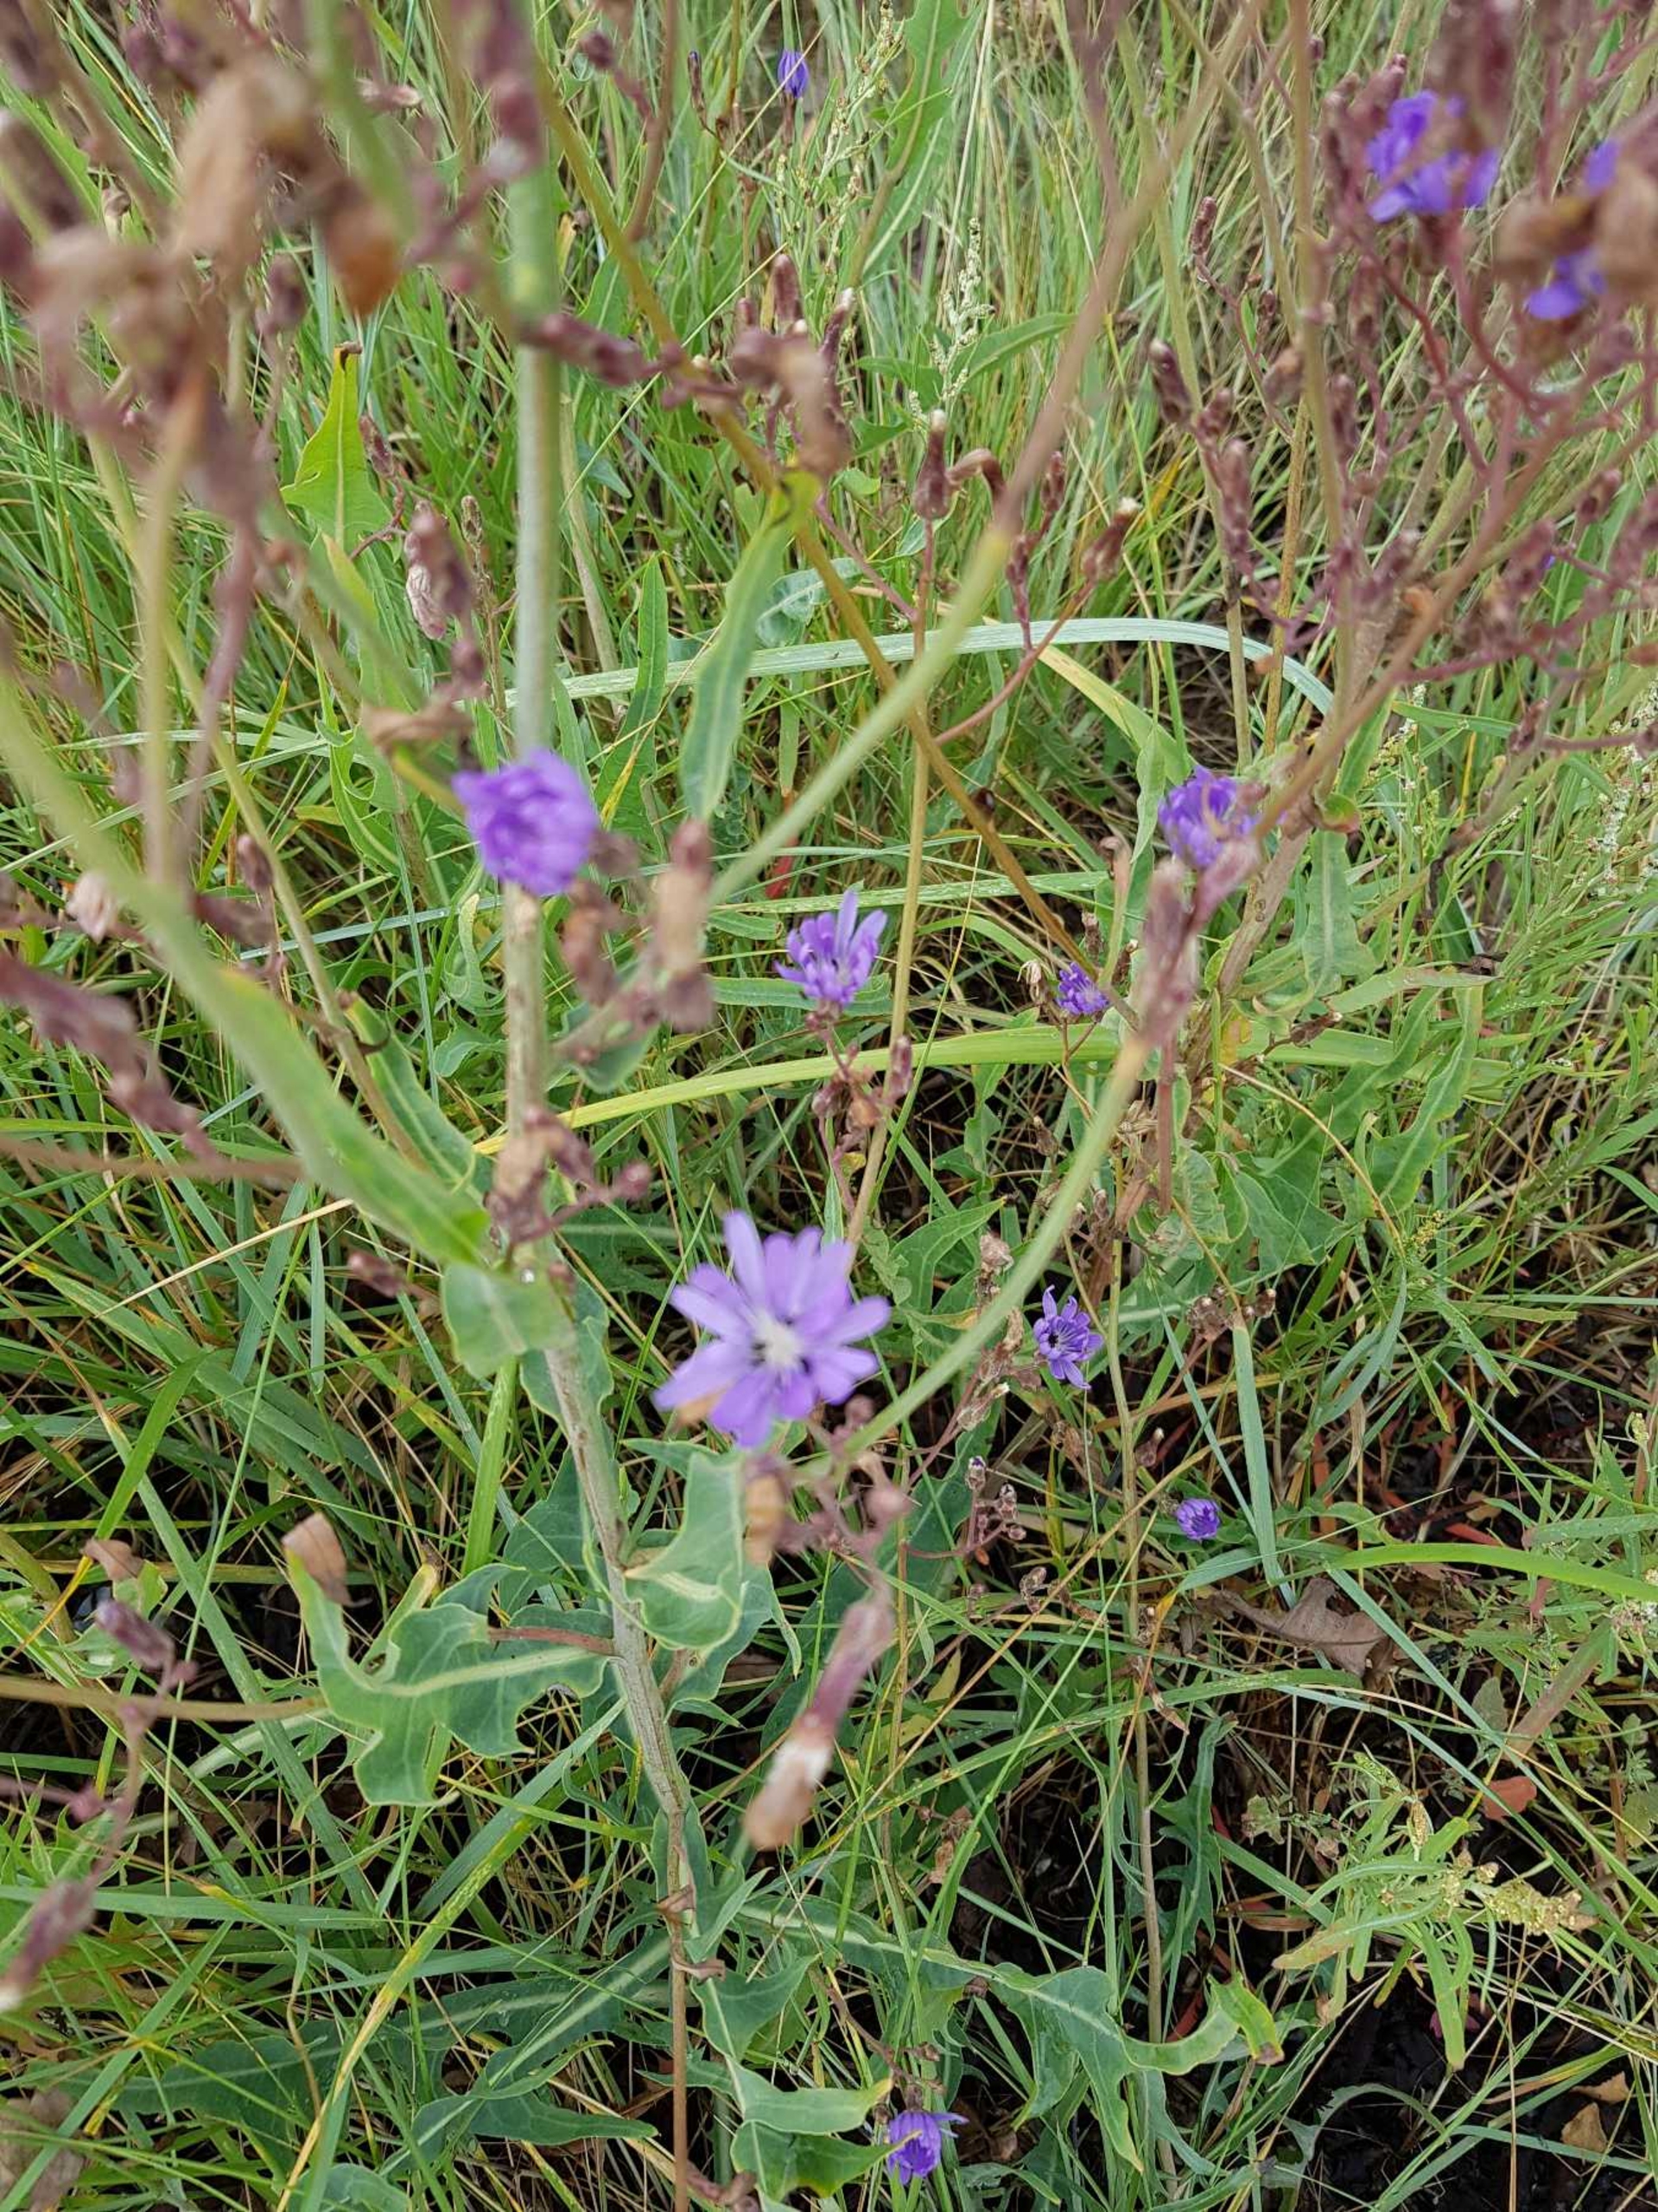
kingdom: Plantae
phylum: Tracheophyta
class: Magnoliopsida
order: Asterales
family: Asteraceae
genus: Lactuca
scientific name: Lactuca tatarica
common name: Strand-salat
